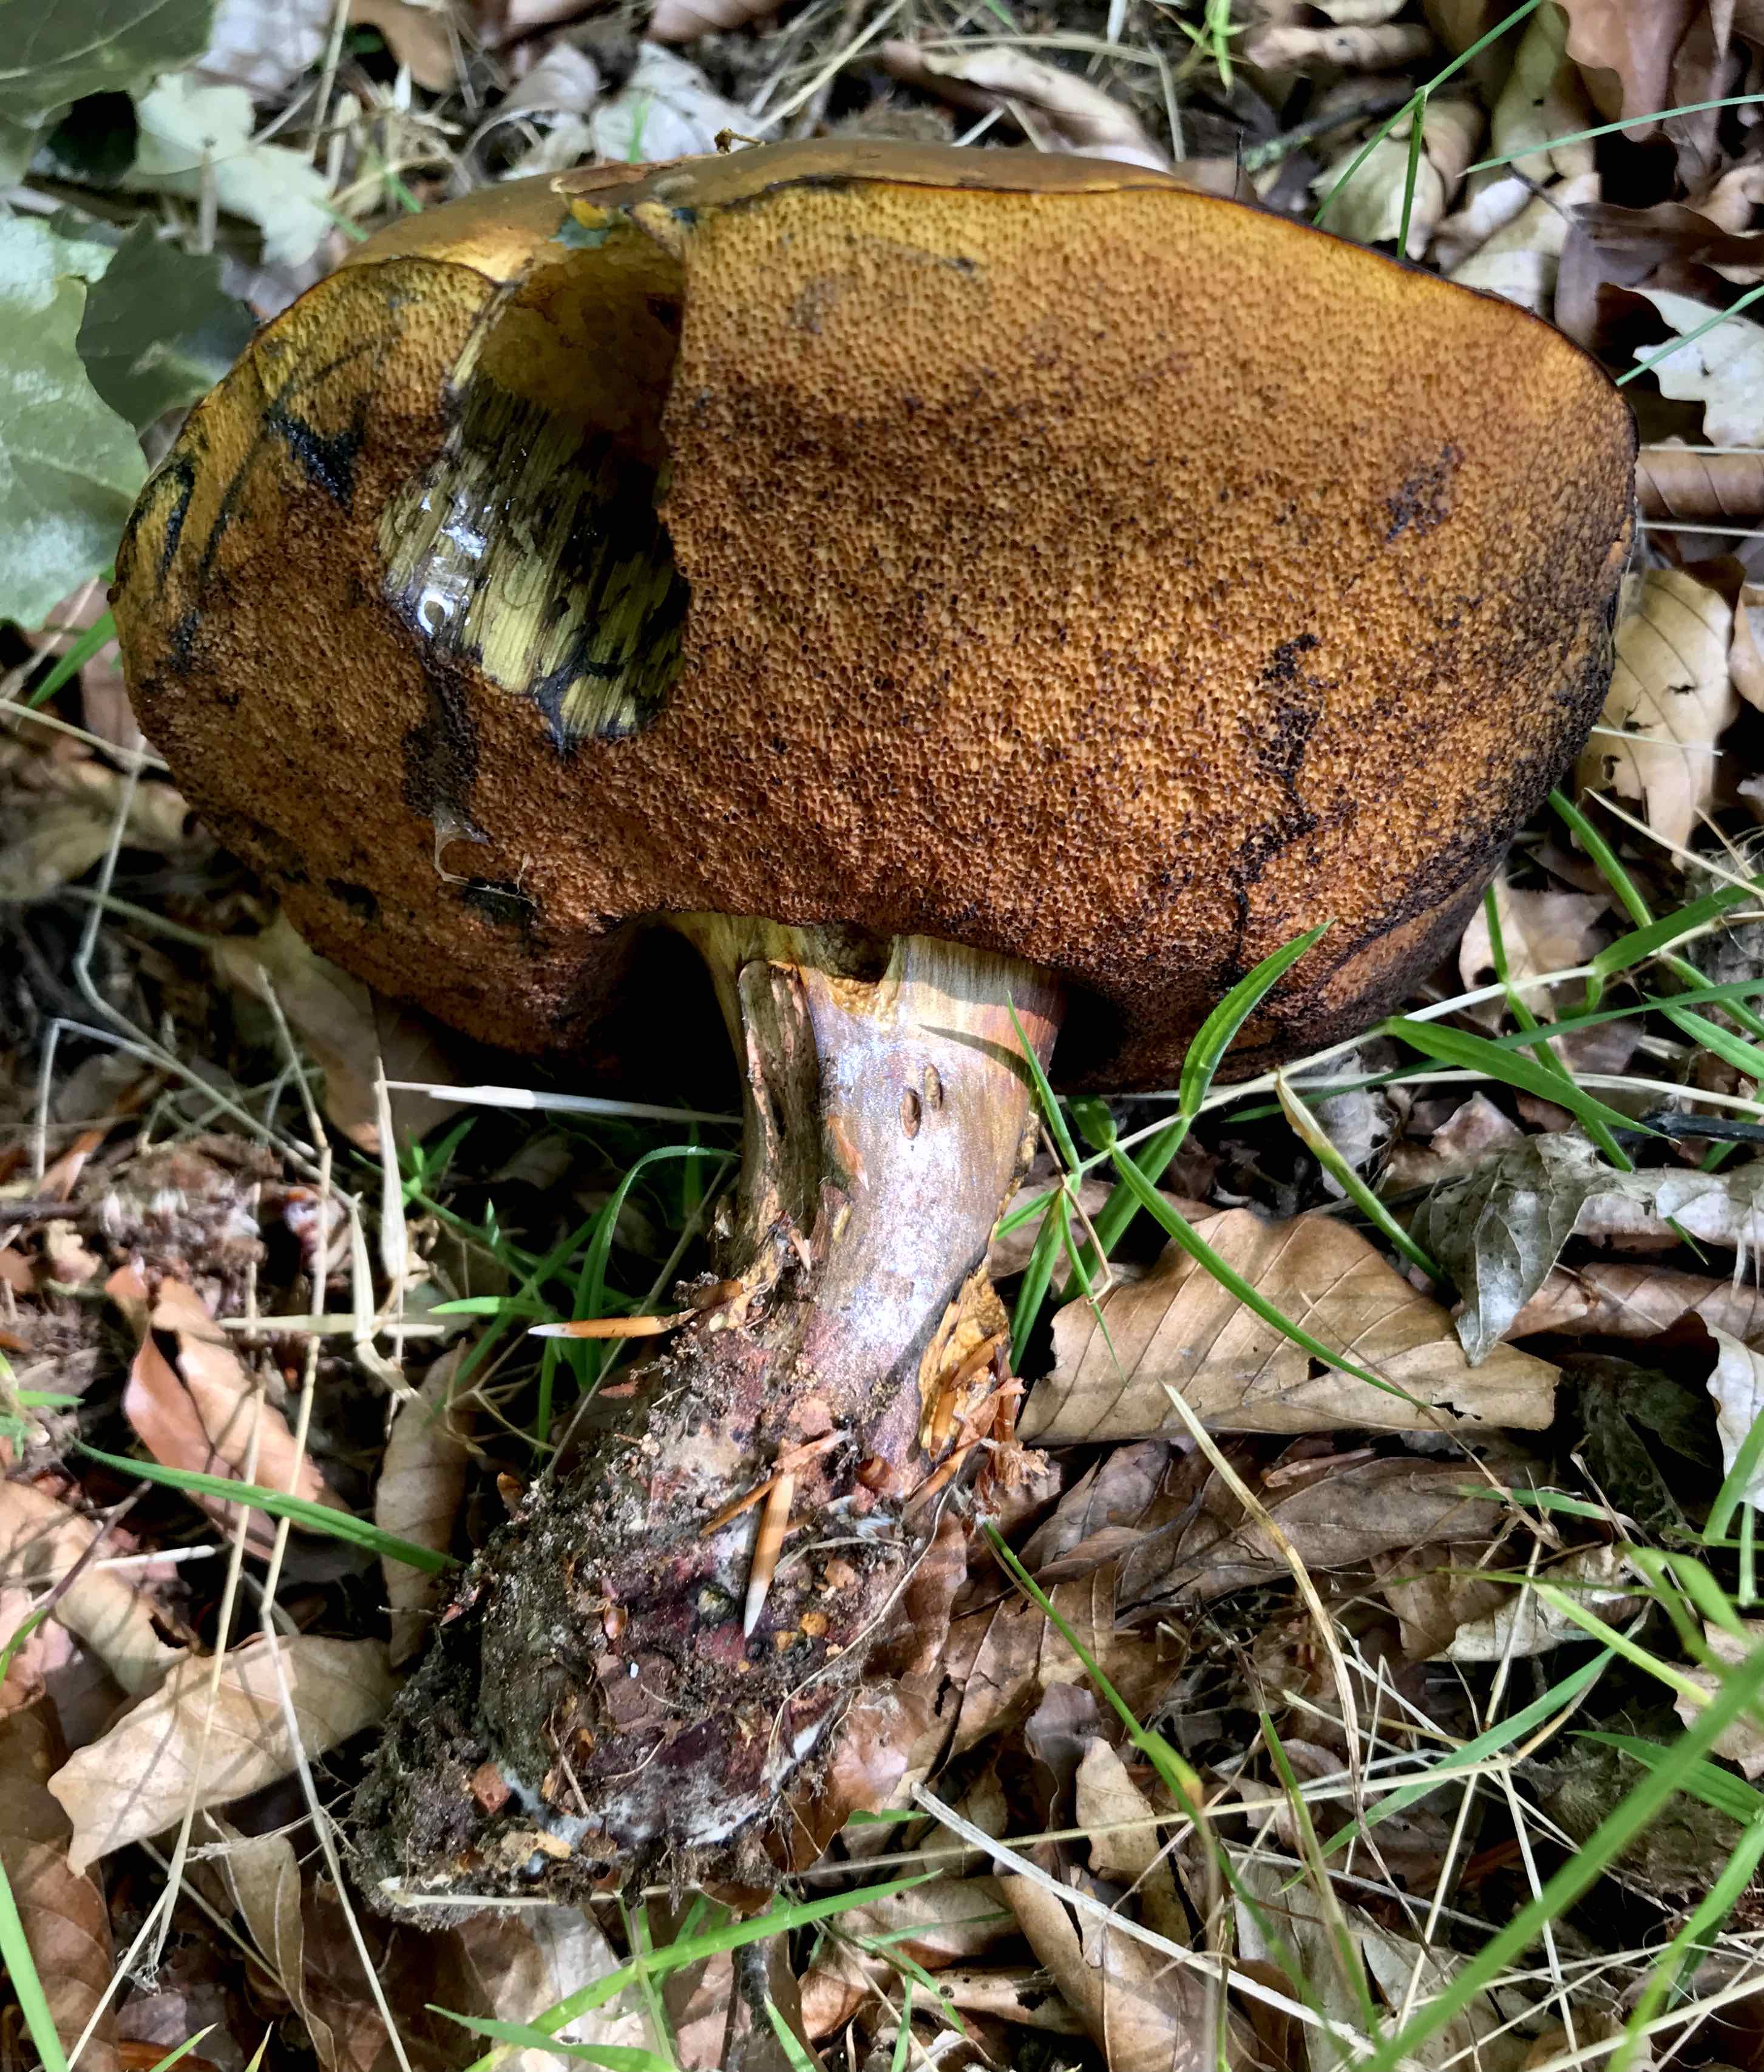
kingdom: Fungi
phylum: Basidiomycota
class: Agaricomycetes
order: Boletales
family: Boletaceae
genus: Suillellus
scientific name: Suillellus queletii
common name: glatstokket indigorørhat
